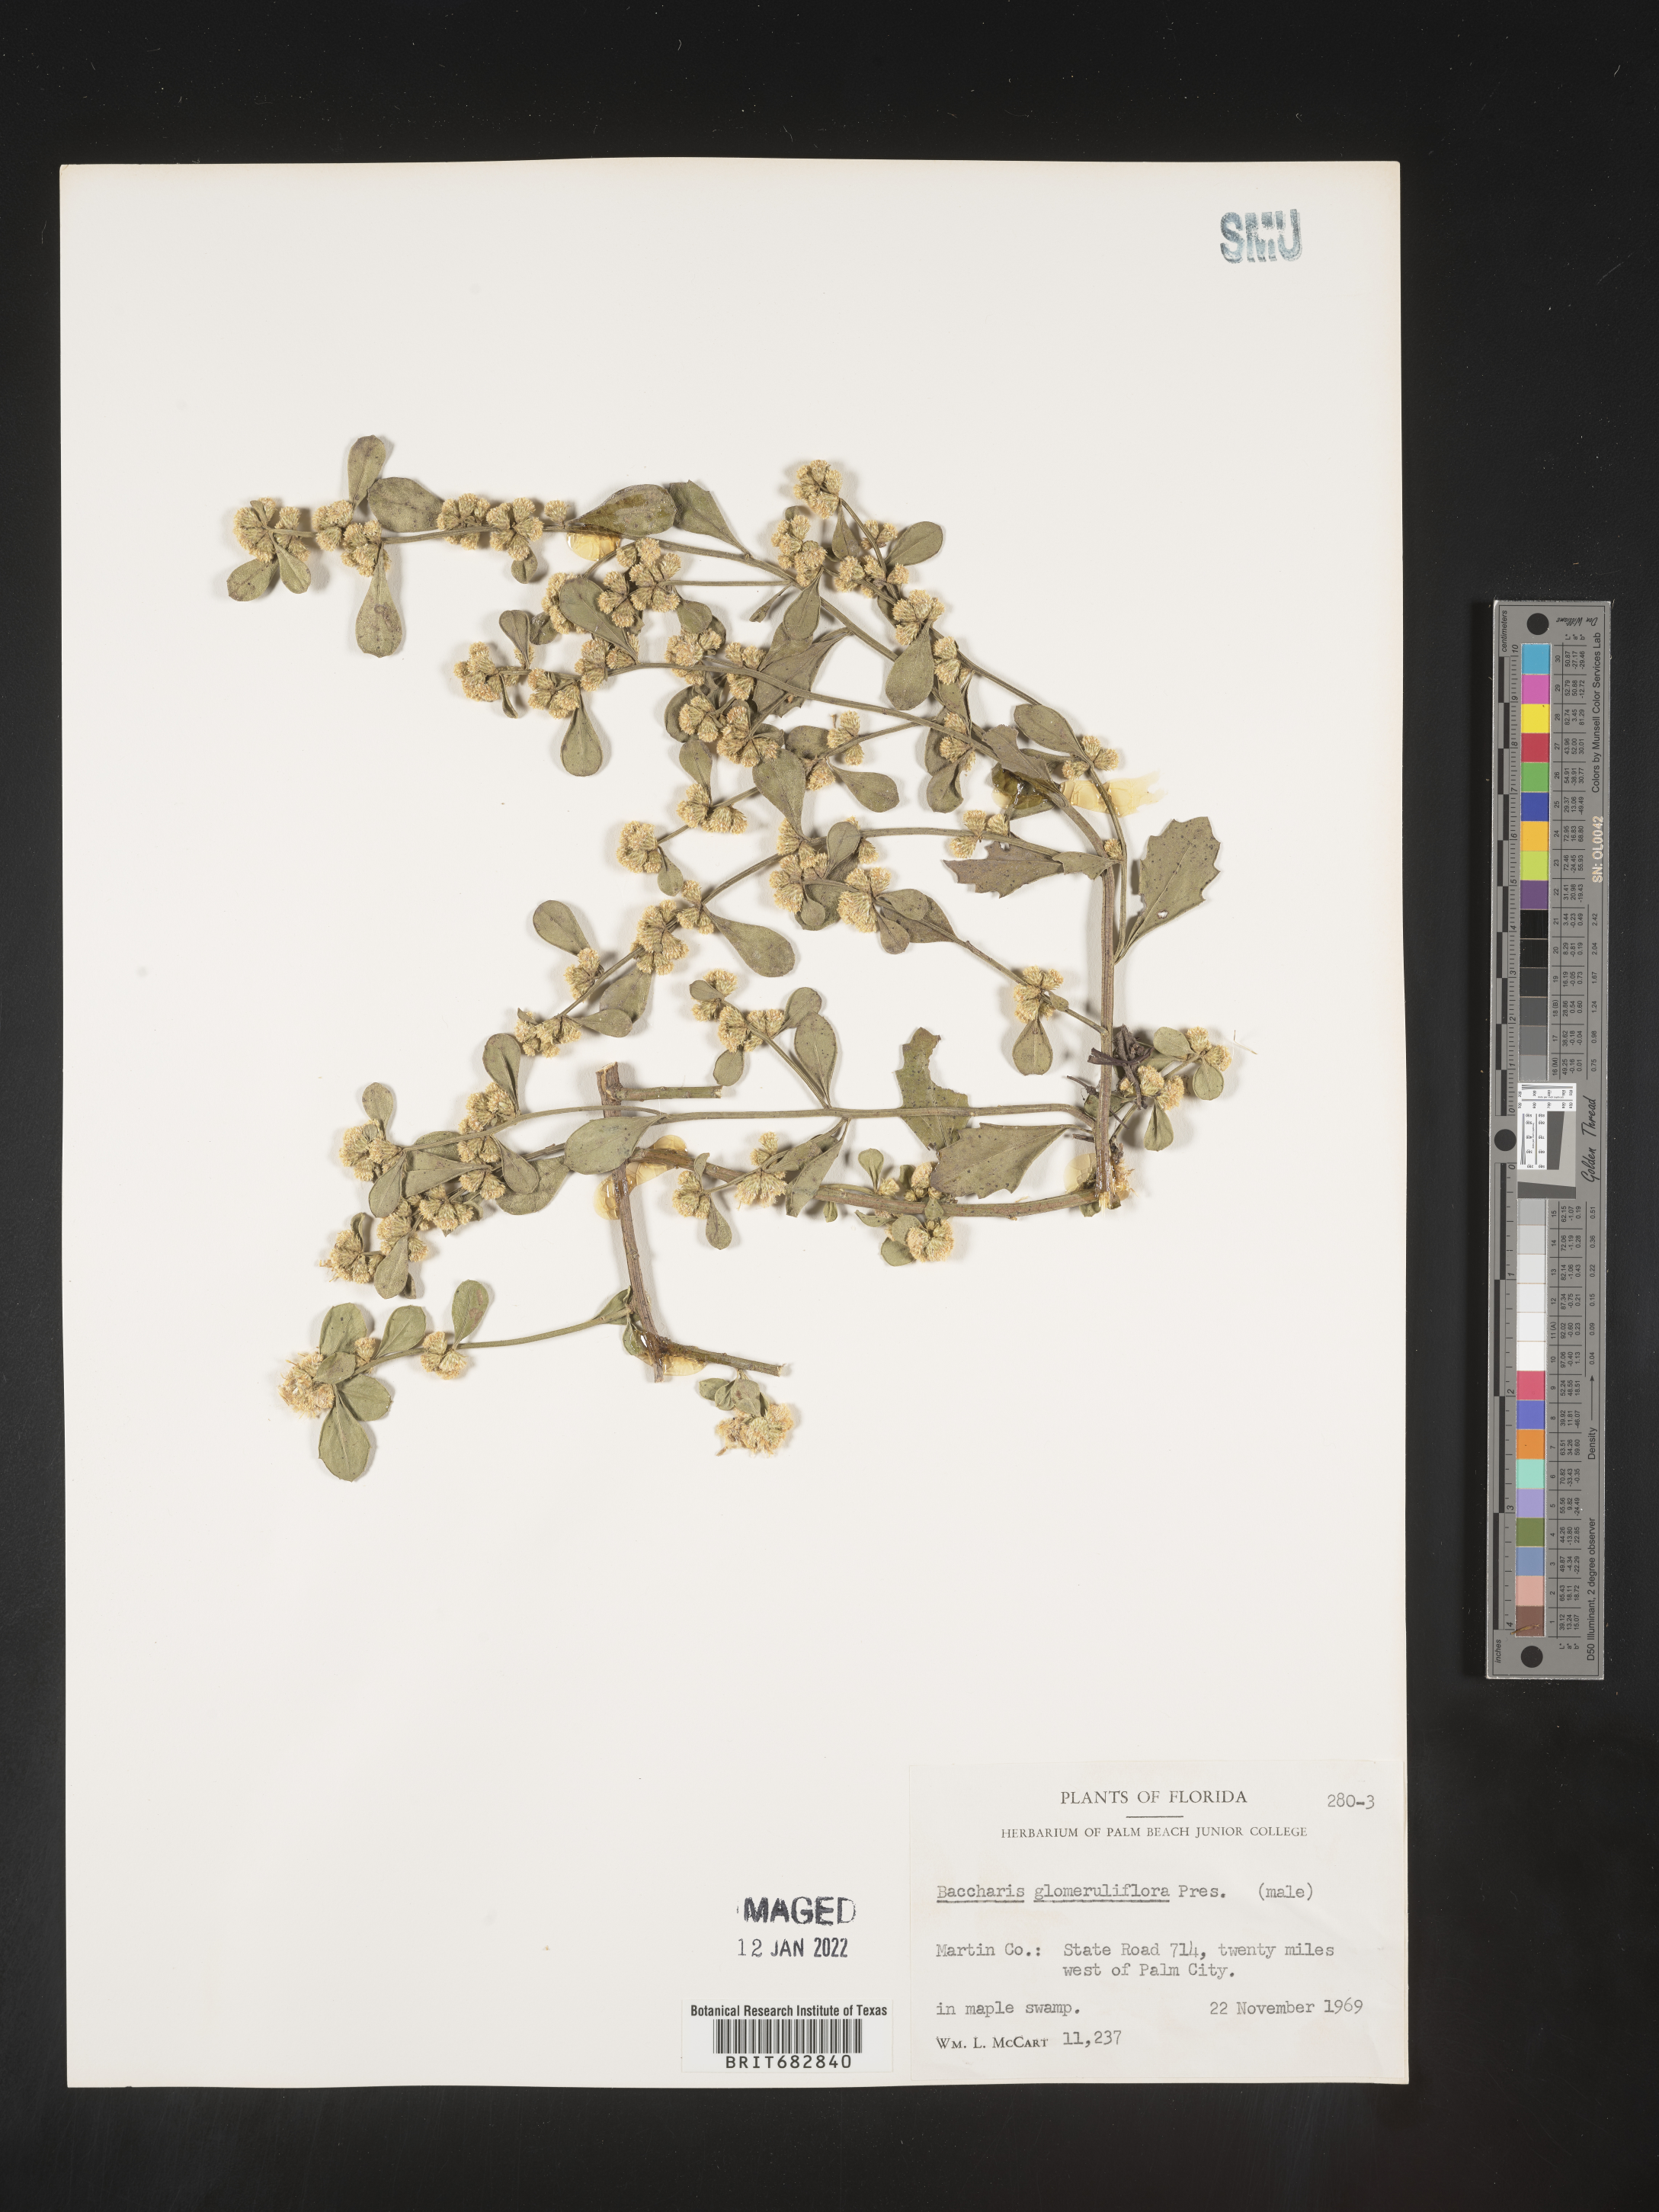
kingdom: Plantae
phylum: Tracheophyta
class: Magnoliopsida
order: Asterales
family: Asteraceae
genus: Baccharis
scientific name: Baccharis glomeruliflora
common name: Silverling groundsel bush
